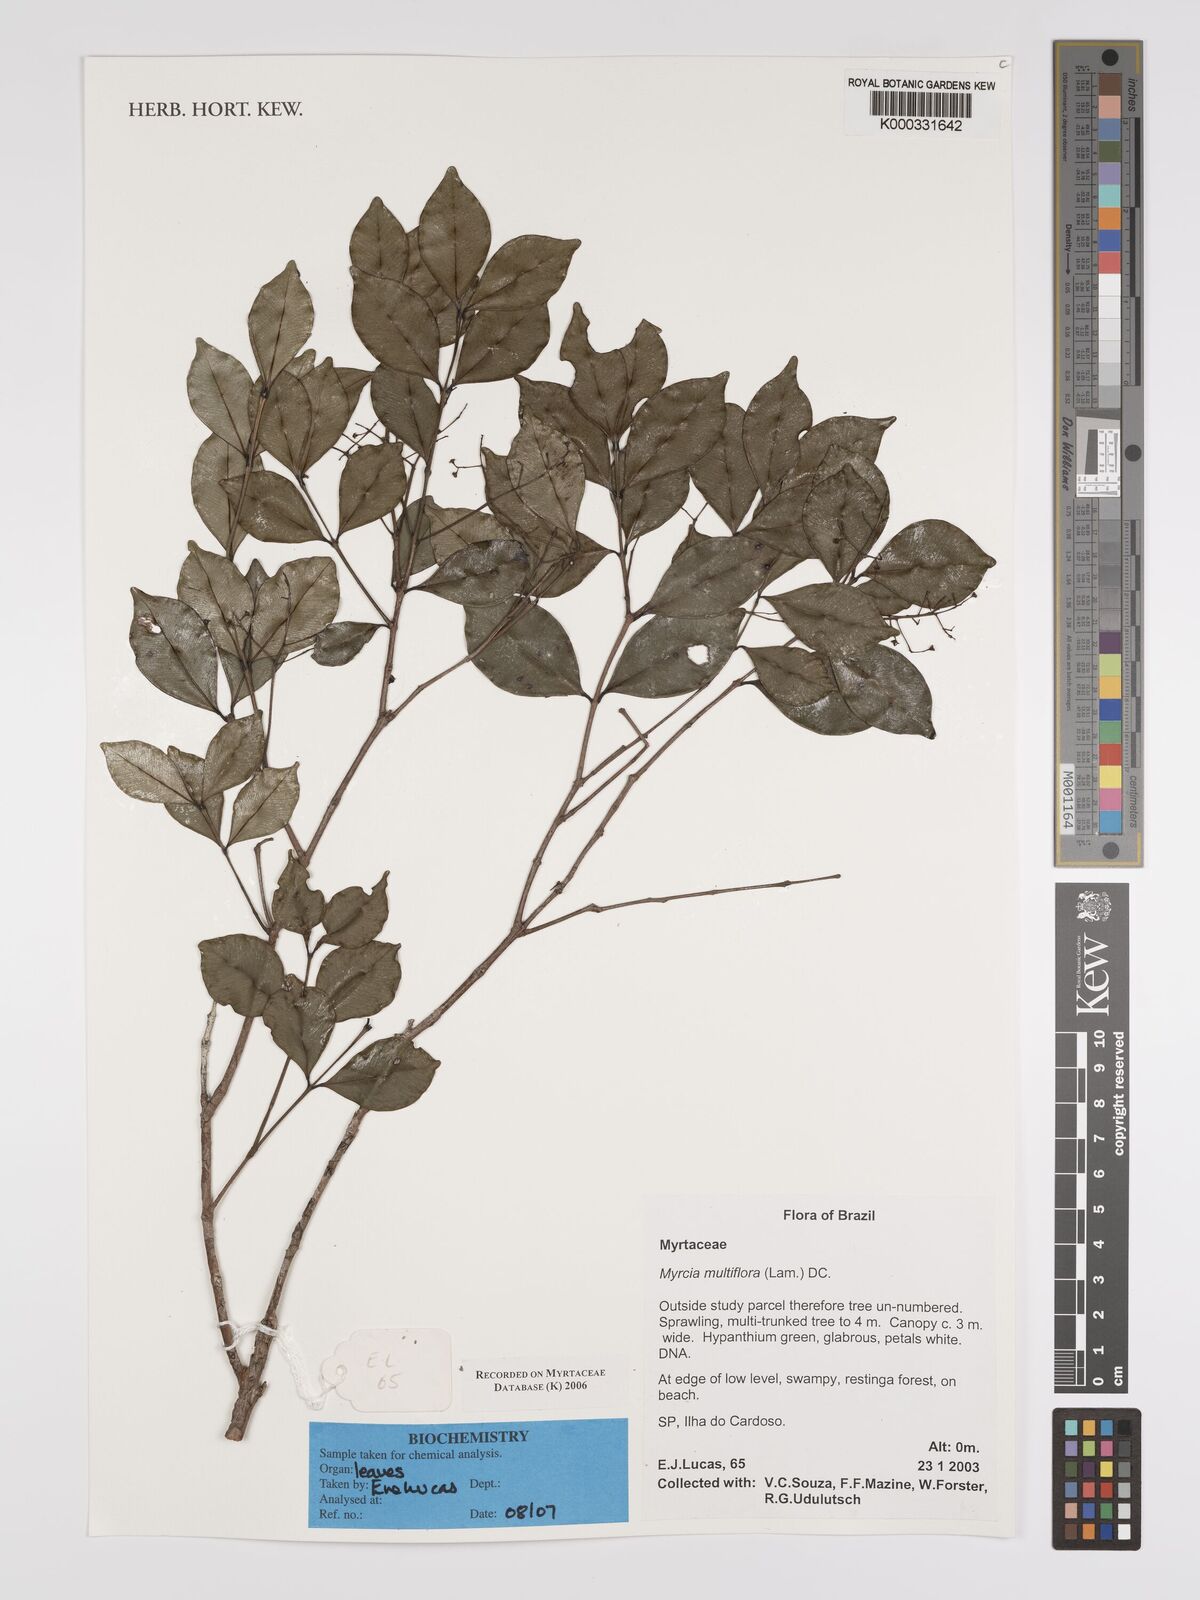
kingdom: Plantae
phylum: Tracheophyta
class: Magnoliopsida
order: Myrtales
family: Myrtaceae
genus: Myrcia
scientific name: Myrcia multiflora
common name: Pedra hume
